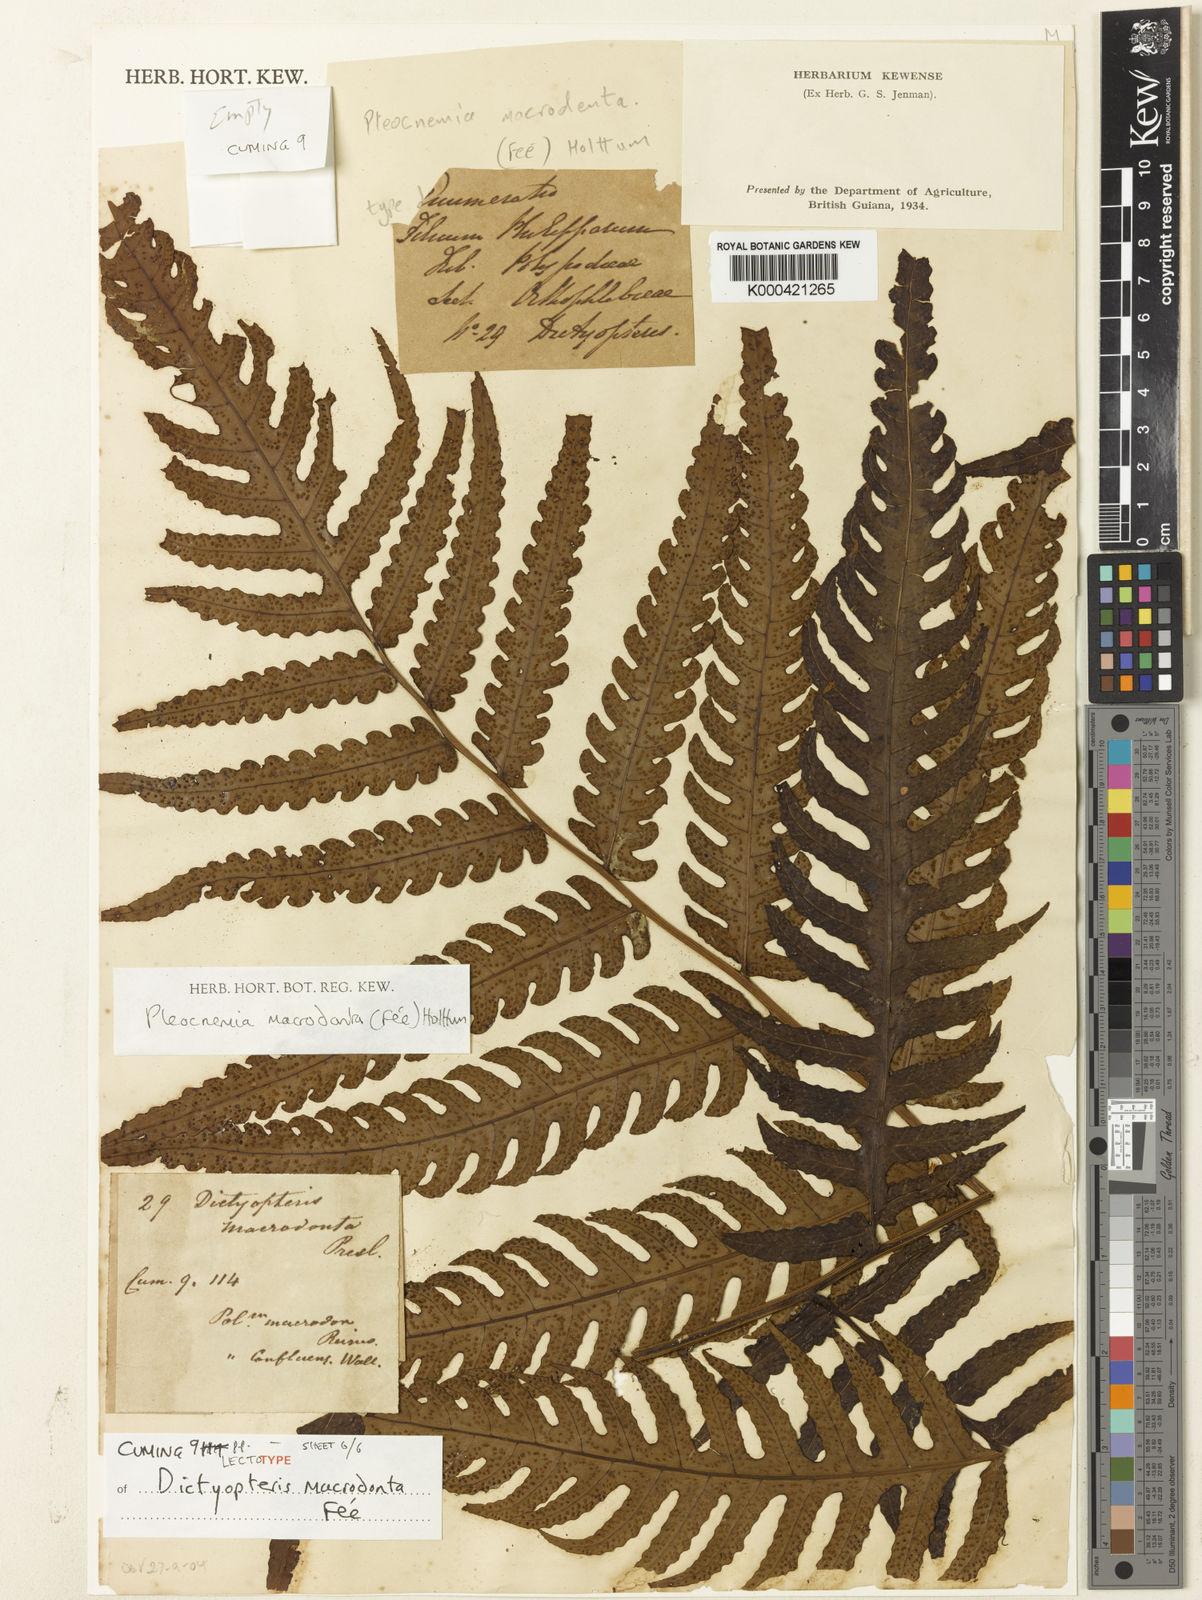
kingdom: Plantae
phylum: Tracheophyta
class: Polypodiopsida
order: Polypodiales
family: Dryopteridaceae
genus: Pleocnemia
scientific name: Pleocnemia
